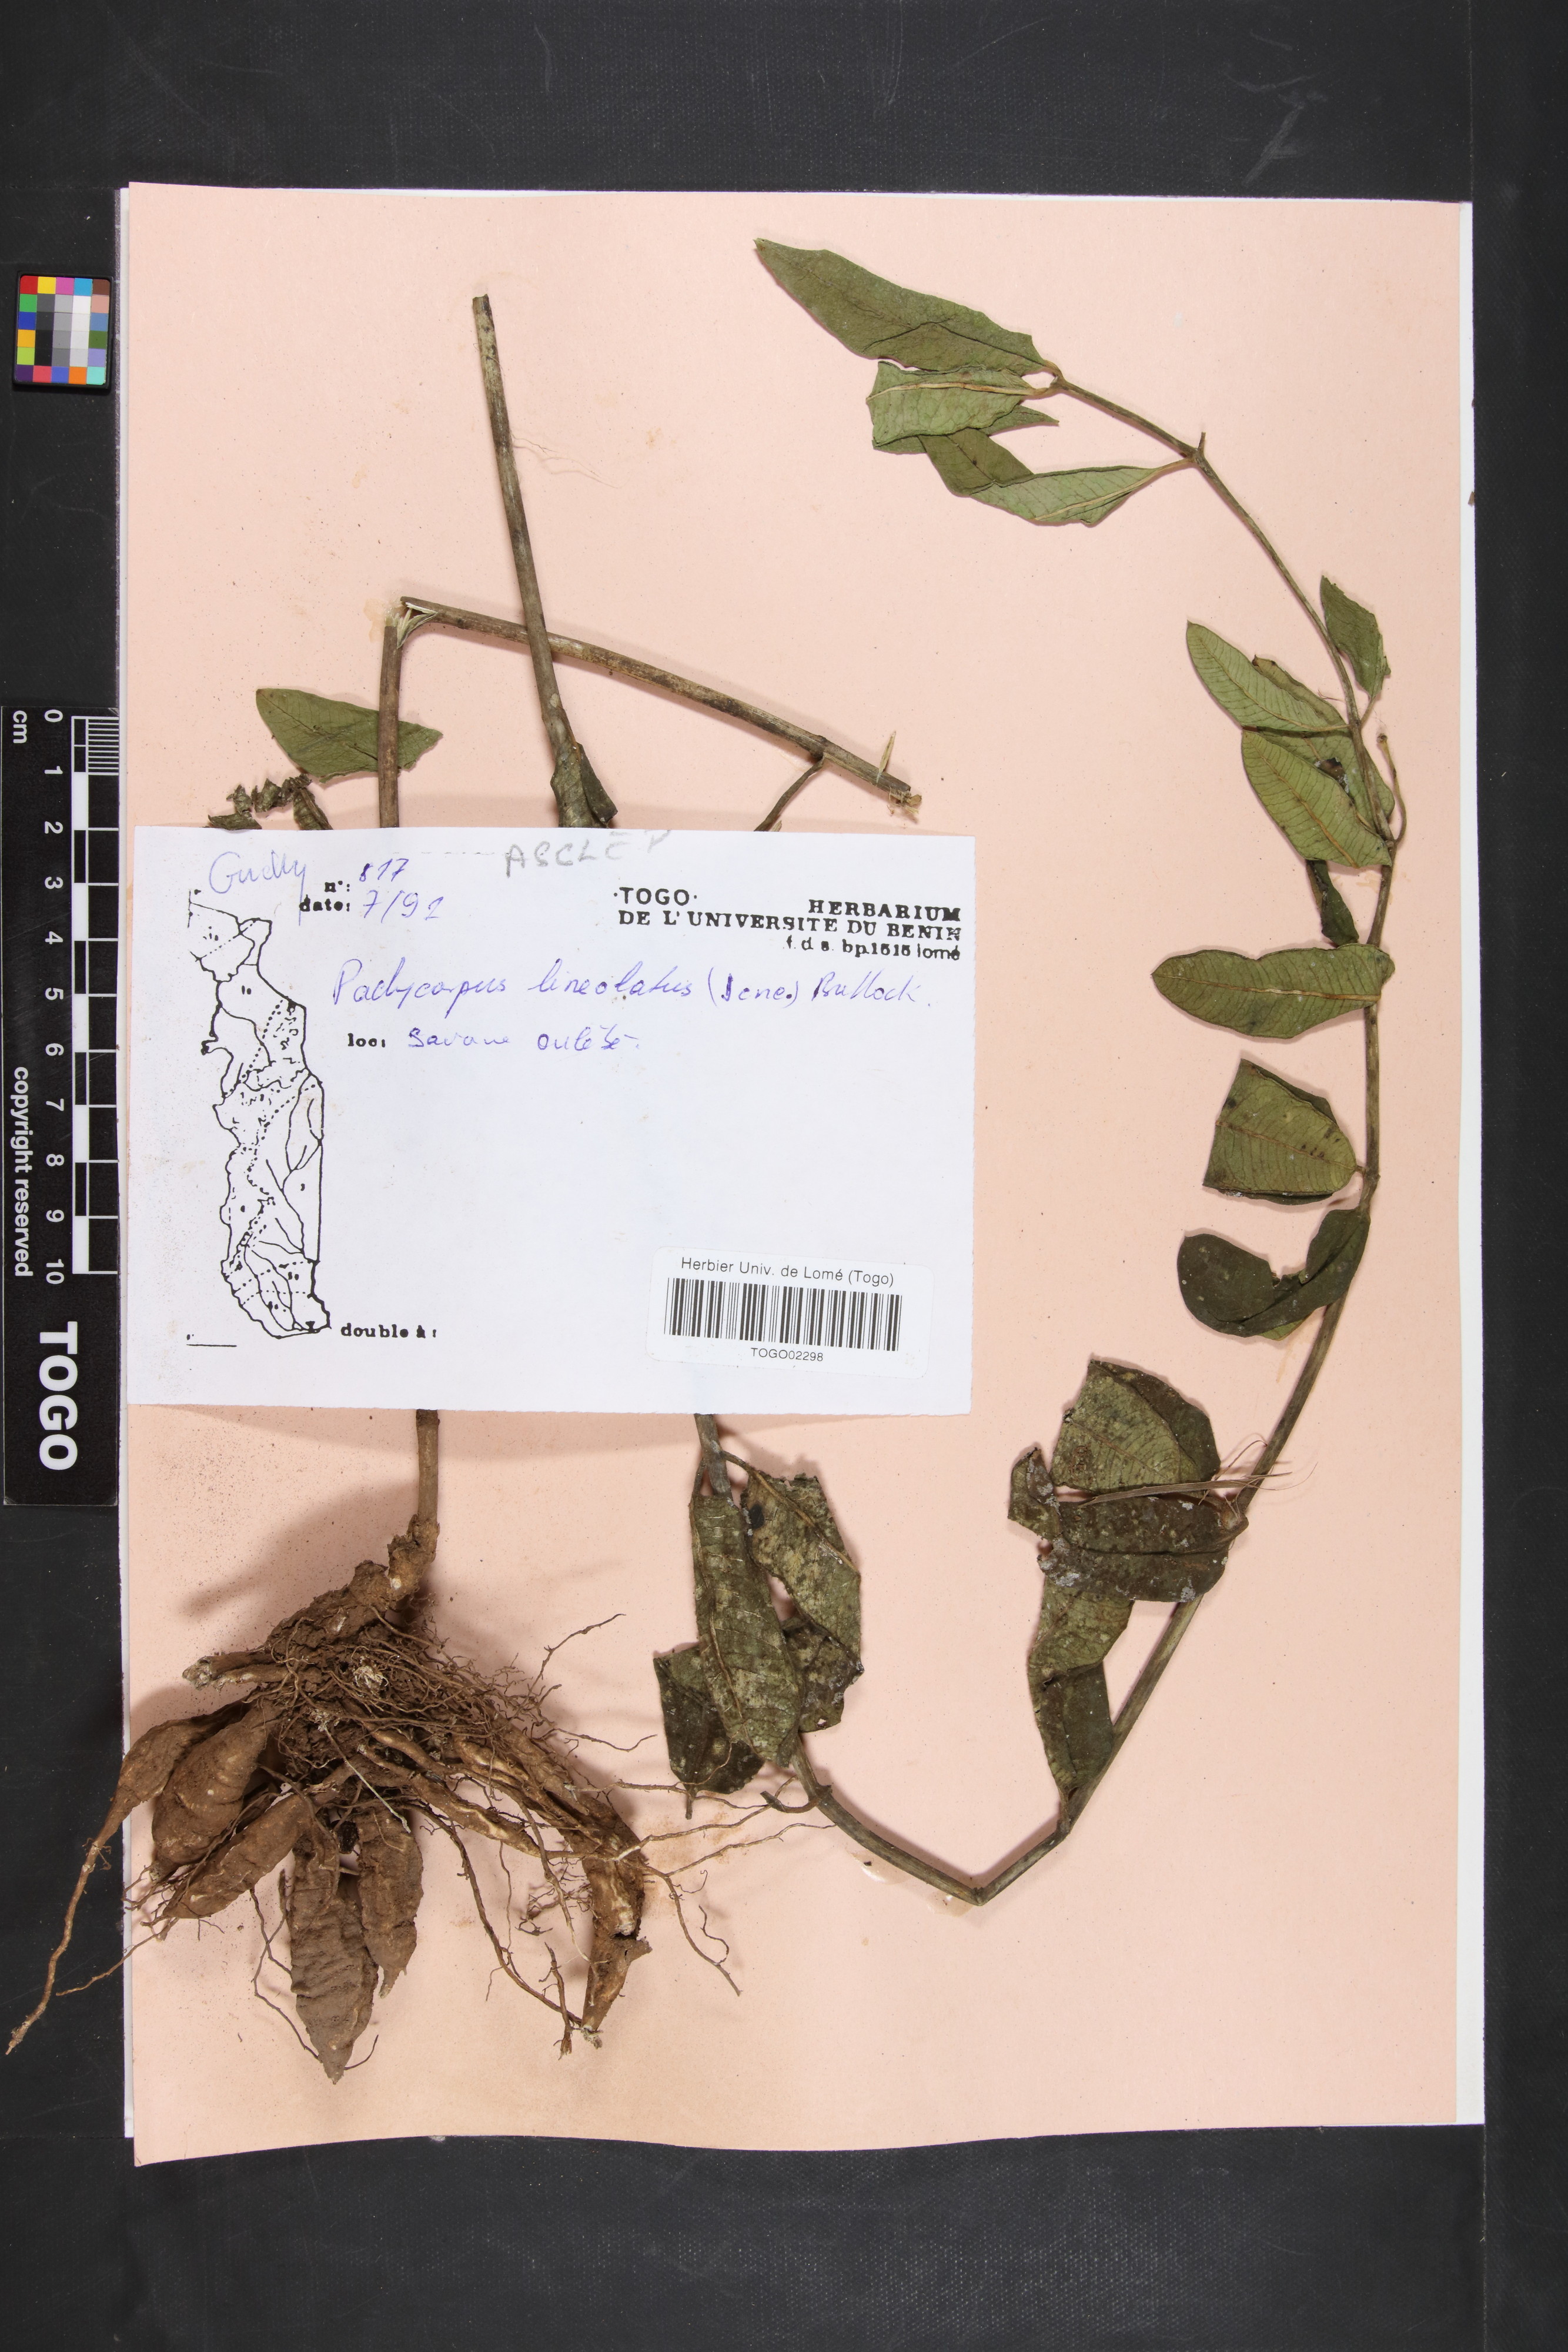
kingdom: Plantae
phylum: Tracheophyta
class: Magnoliopsida
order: Gentianales
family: Apocynaceae
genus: Pachycarpus
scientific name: Pachycarpus lineolatus
